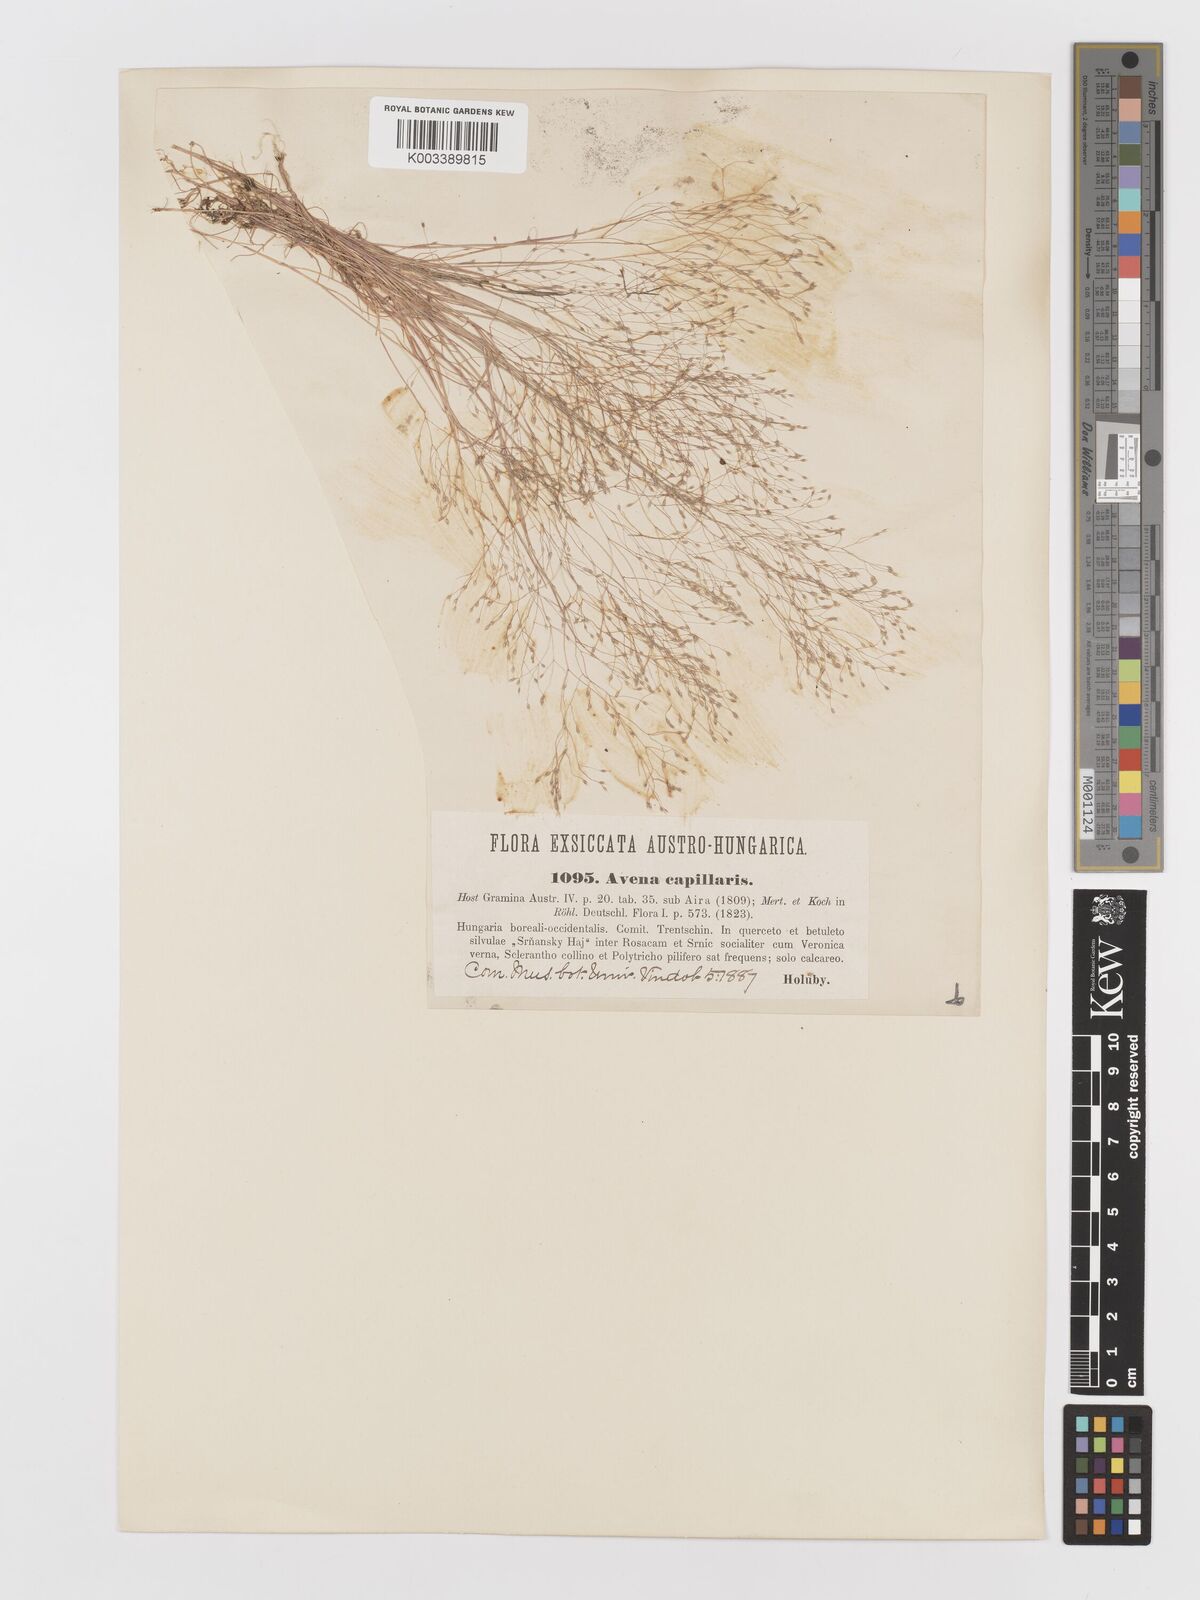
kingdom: Plantae
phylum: Tracheophyta
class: Liliopsida
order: Poales
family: Poaceae
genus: Aira
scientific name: Aira elegans
